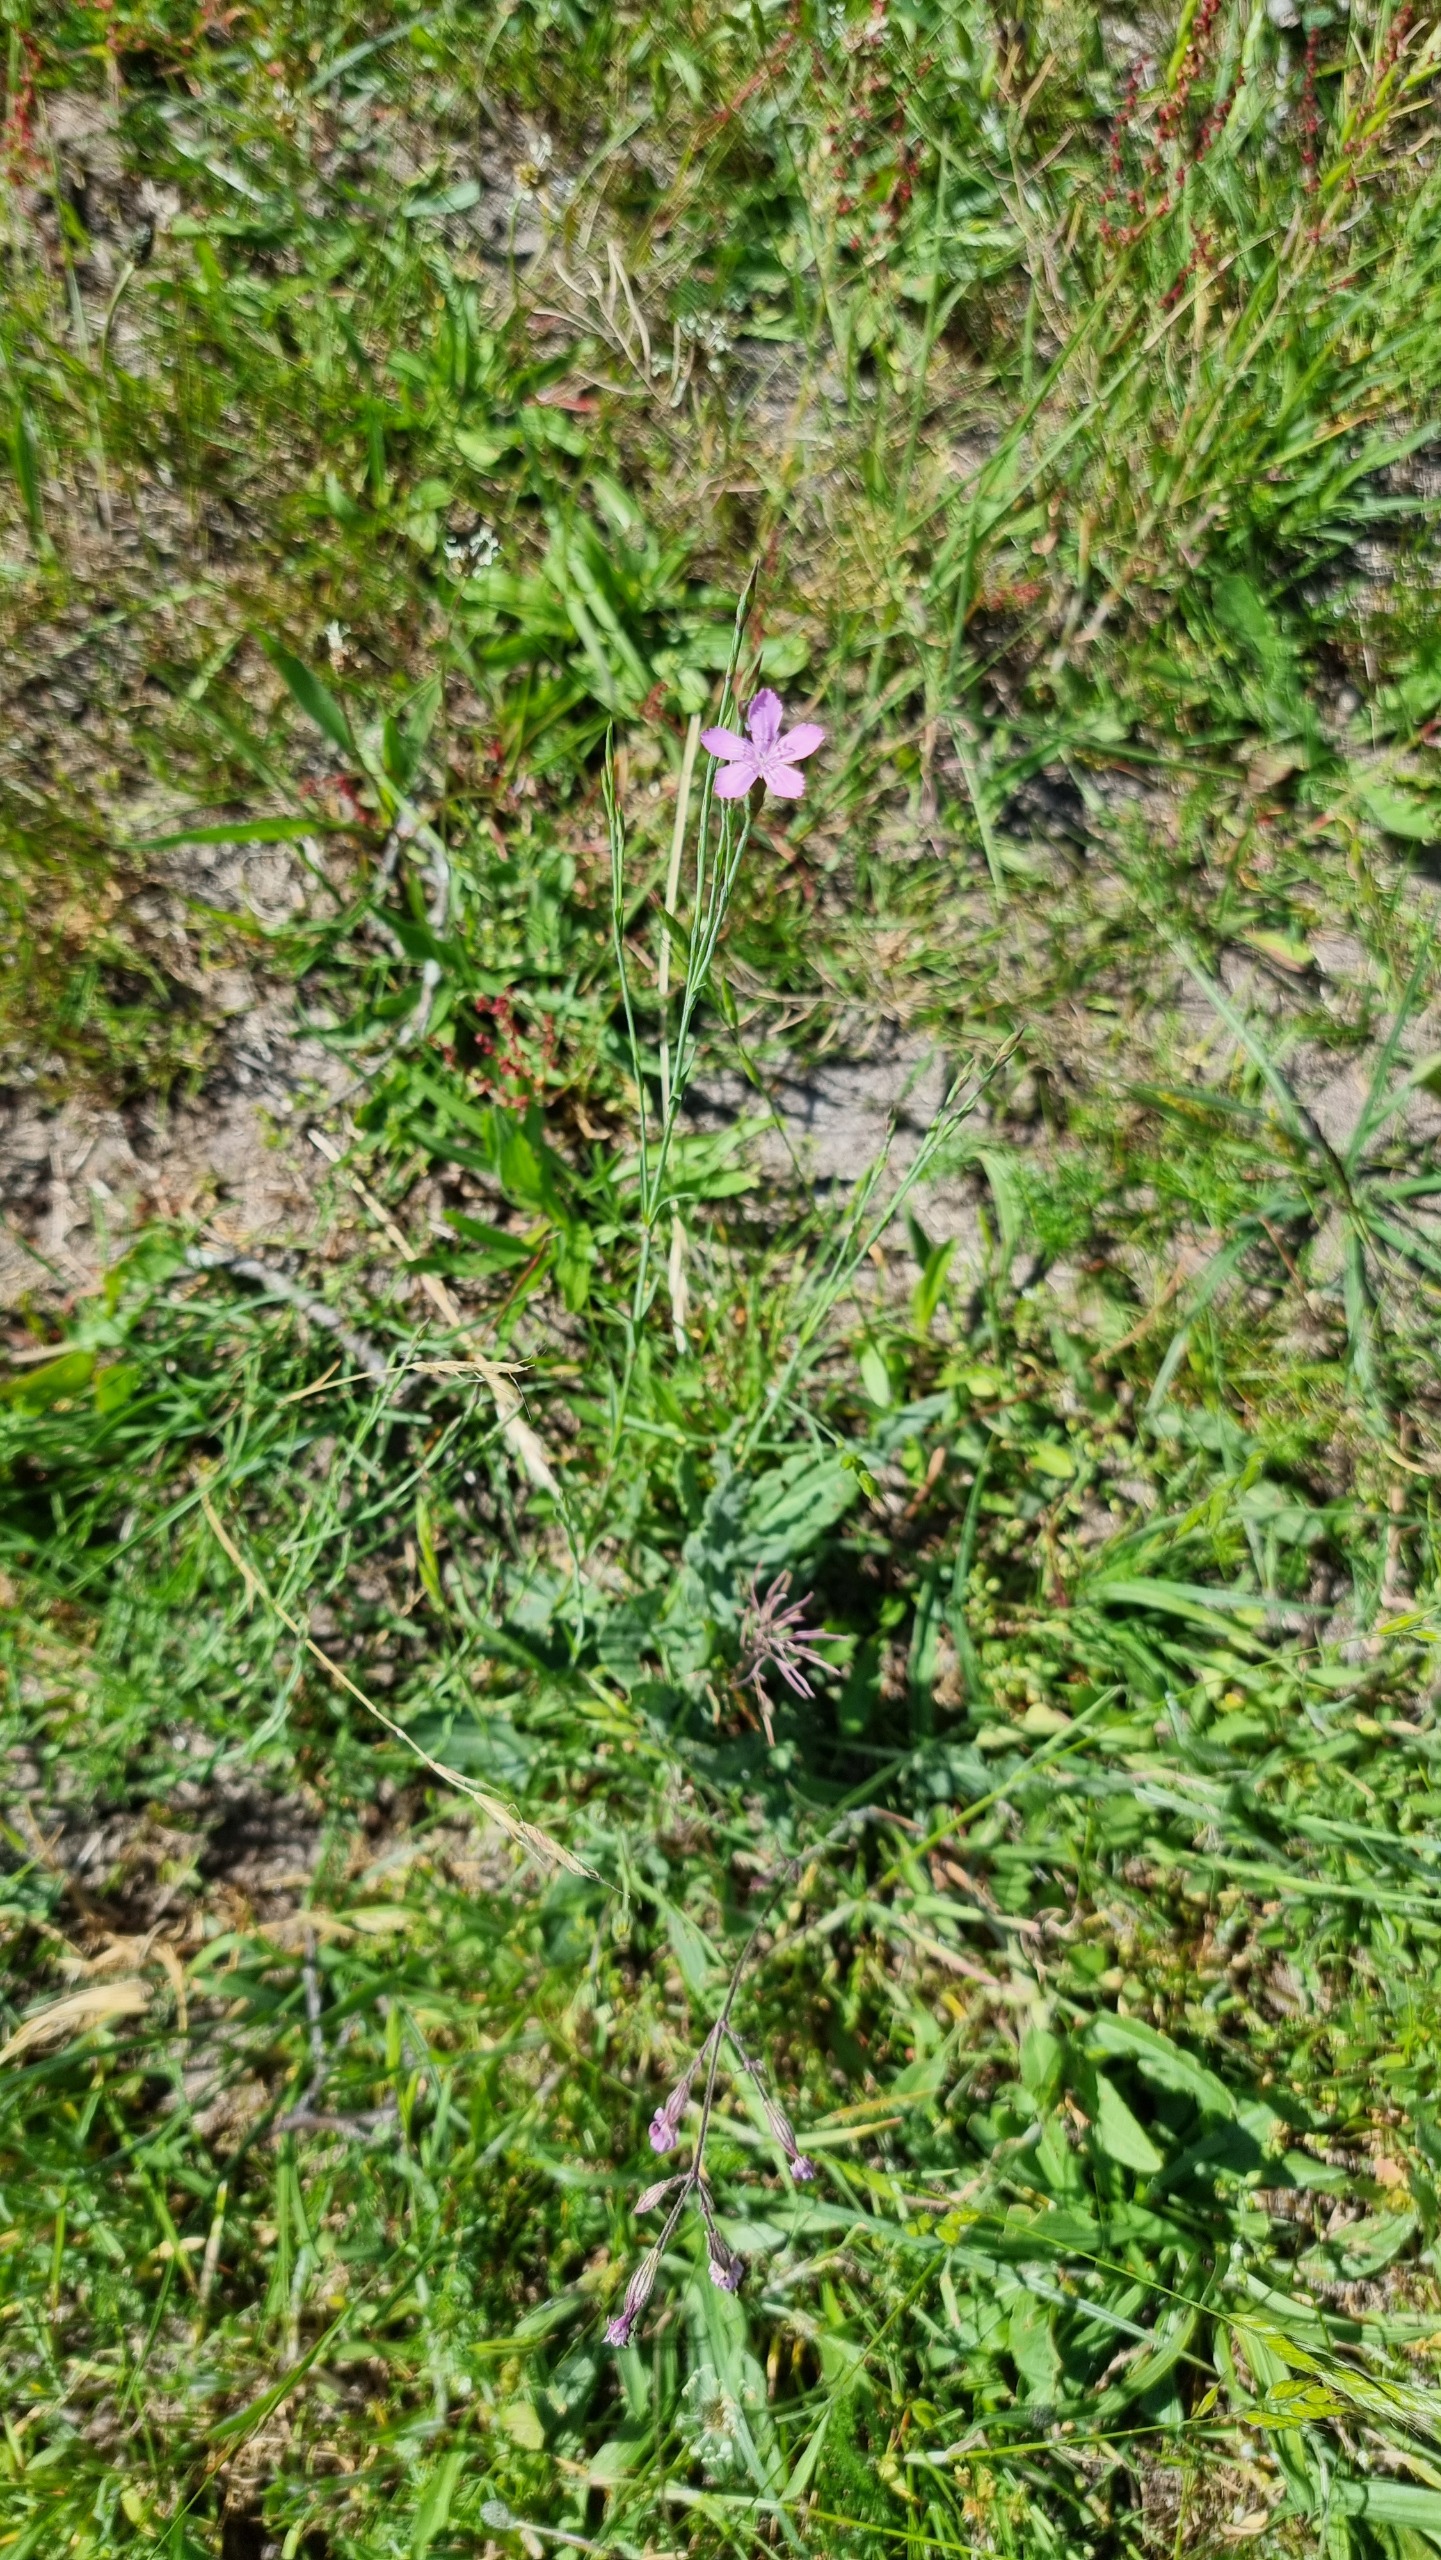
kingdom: Plantae
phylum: Tracheophyta
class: Magnoliopsida
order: Caryophyllales
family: Caryophyllaceae
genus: Dianthus
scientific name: Dianthus deltoides
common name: Bakke-nellike
